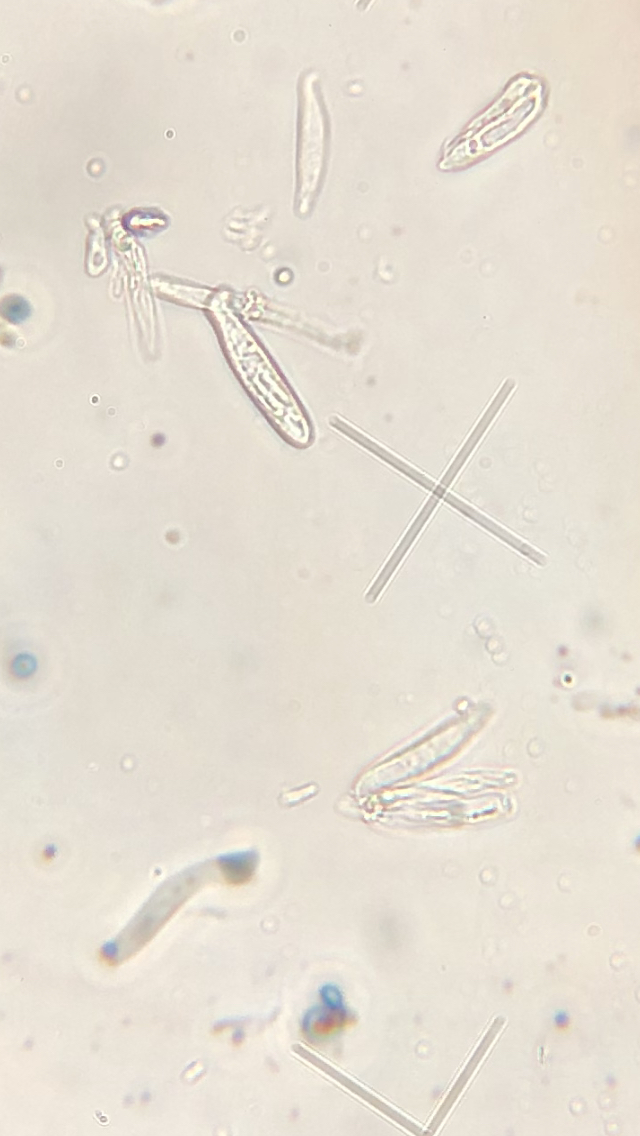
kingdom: Fungi
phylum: Ascomycota
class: Leotiomycetes
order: Helotiales
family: Pezizellaceae
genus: Psilachnum
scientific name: Psilachnum chrysostigmum
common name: gulnende hårskive
